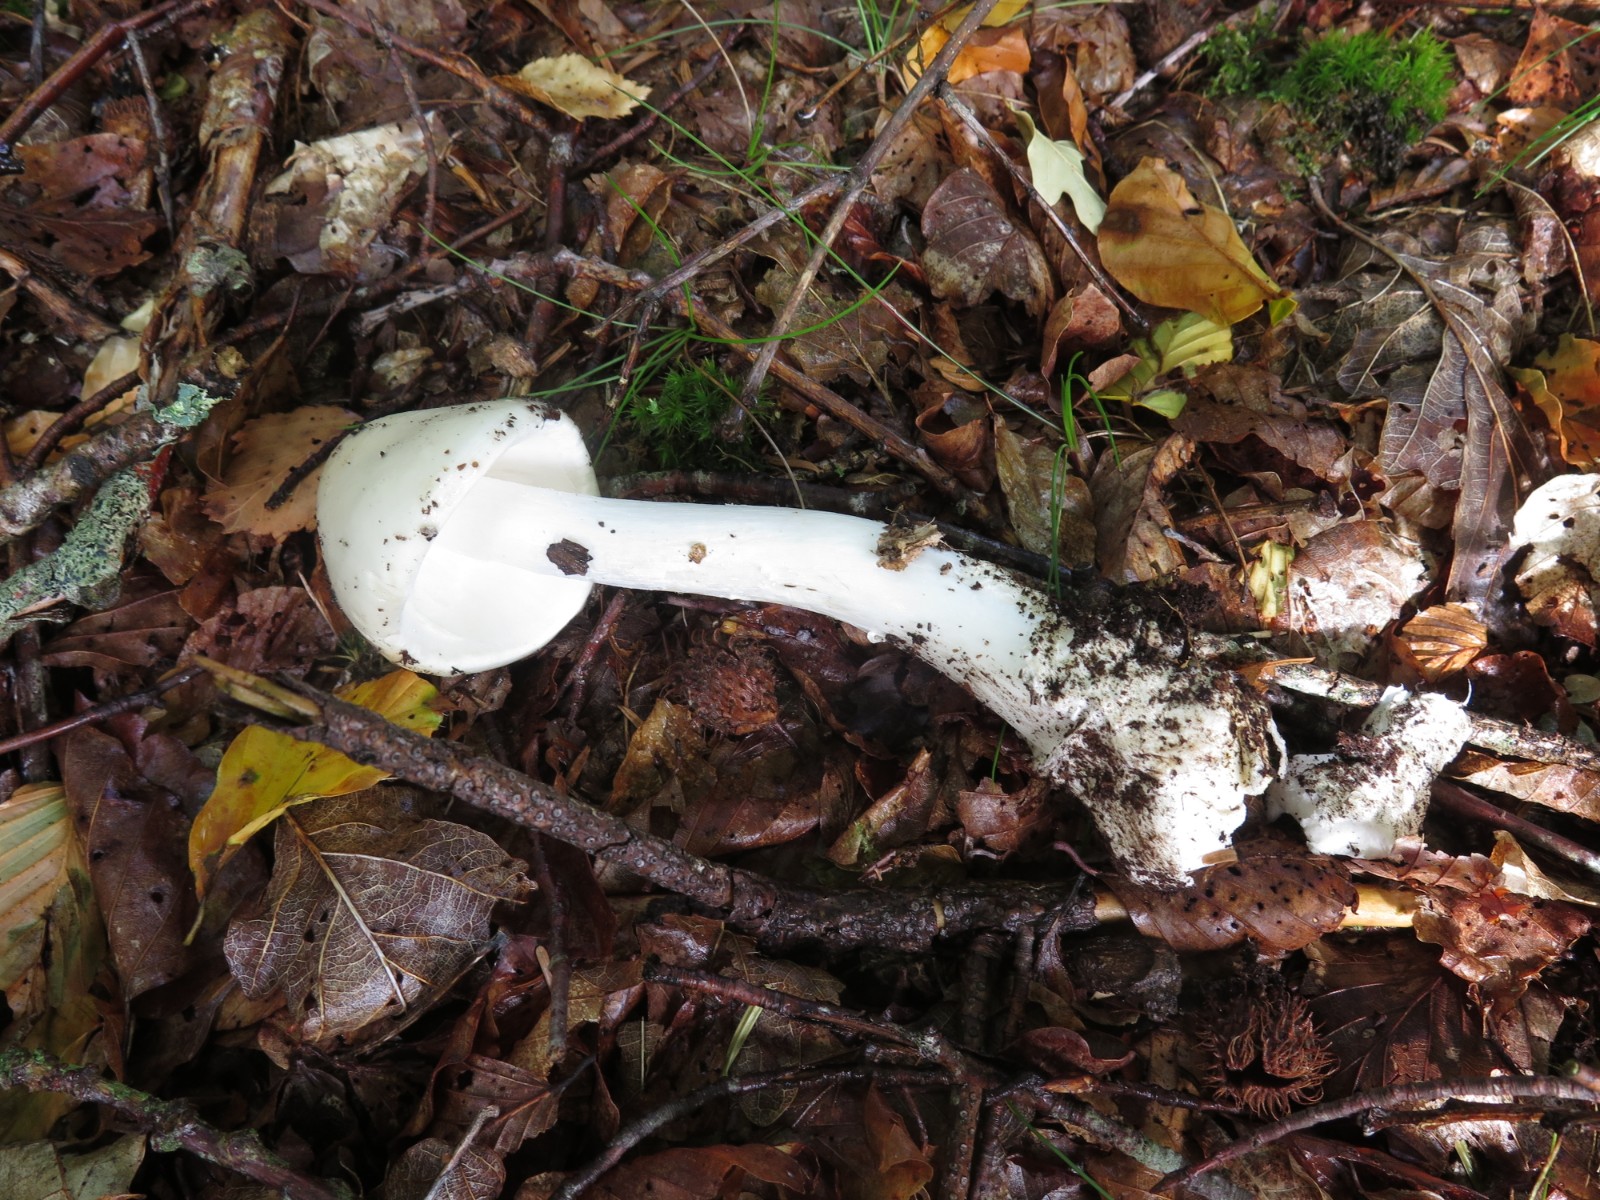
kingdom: Fungi
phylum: Basidiomycota
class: Agaricomycetes
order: Agaricales
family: Amanitaceae
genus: Amanita
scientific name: Amanita virosa
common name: snehvid fluesvamp
